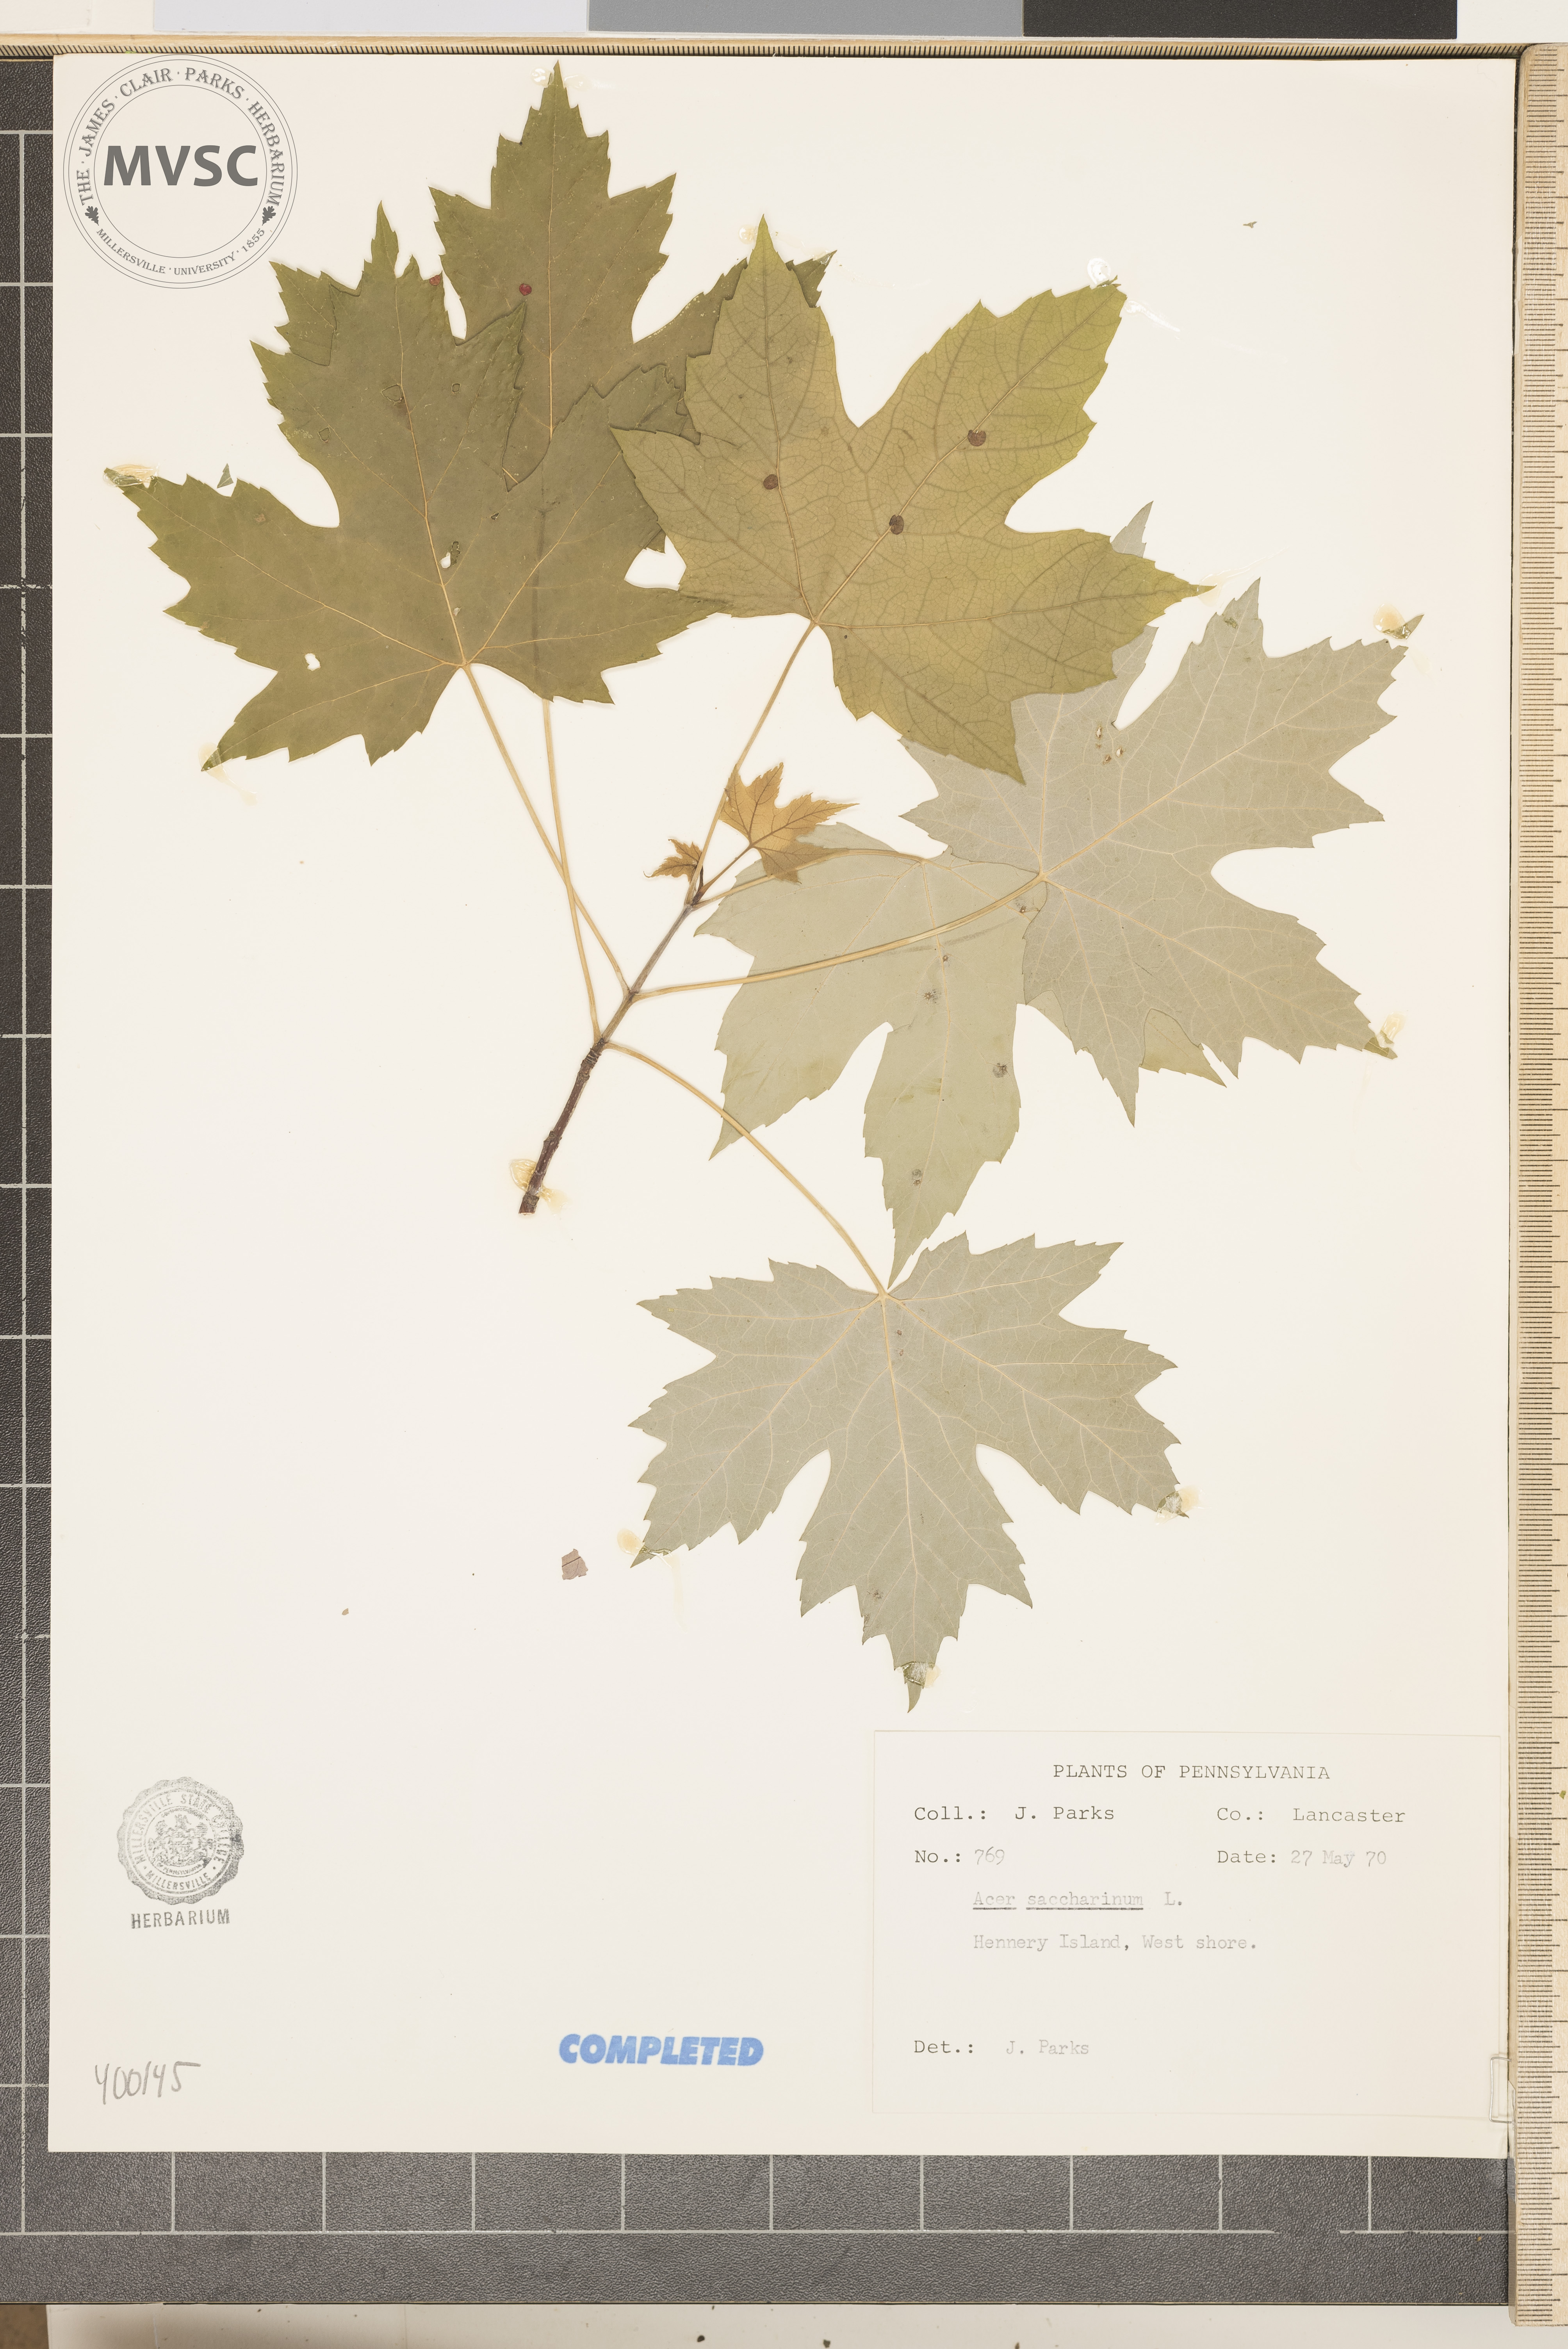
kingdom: Plantae
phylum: Tracheophyta
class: Magnoliopsida
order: Sapindales
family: Sapindaceae
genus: Acer
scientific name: Acer saccharinum
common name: silver maple
